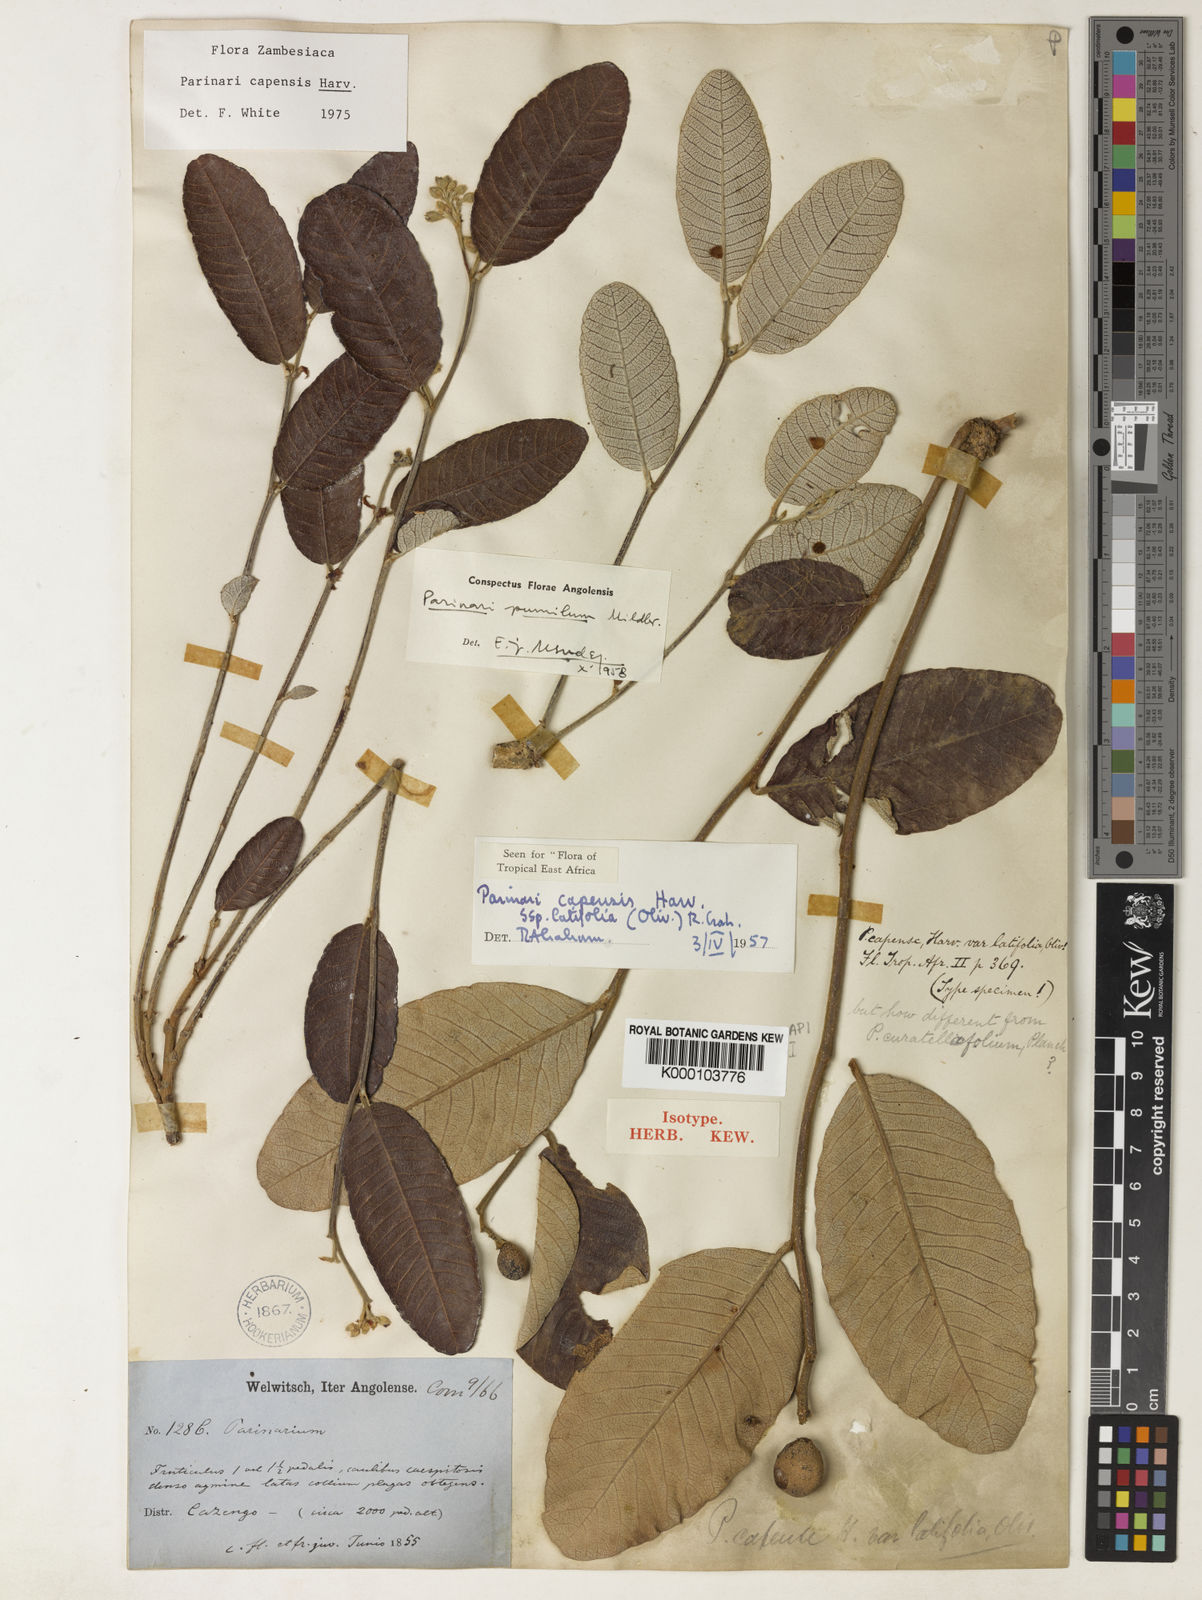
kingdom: Plantae
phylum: Tracheophyta
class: Magnoliopsida
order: Malpighiales
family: Chrysobalanaceae
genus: Parinari
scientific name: Parinari capensis
